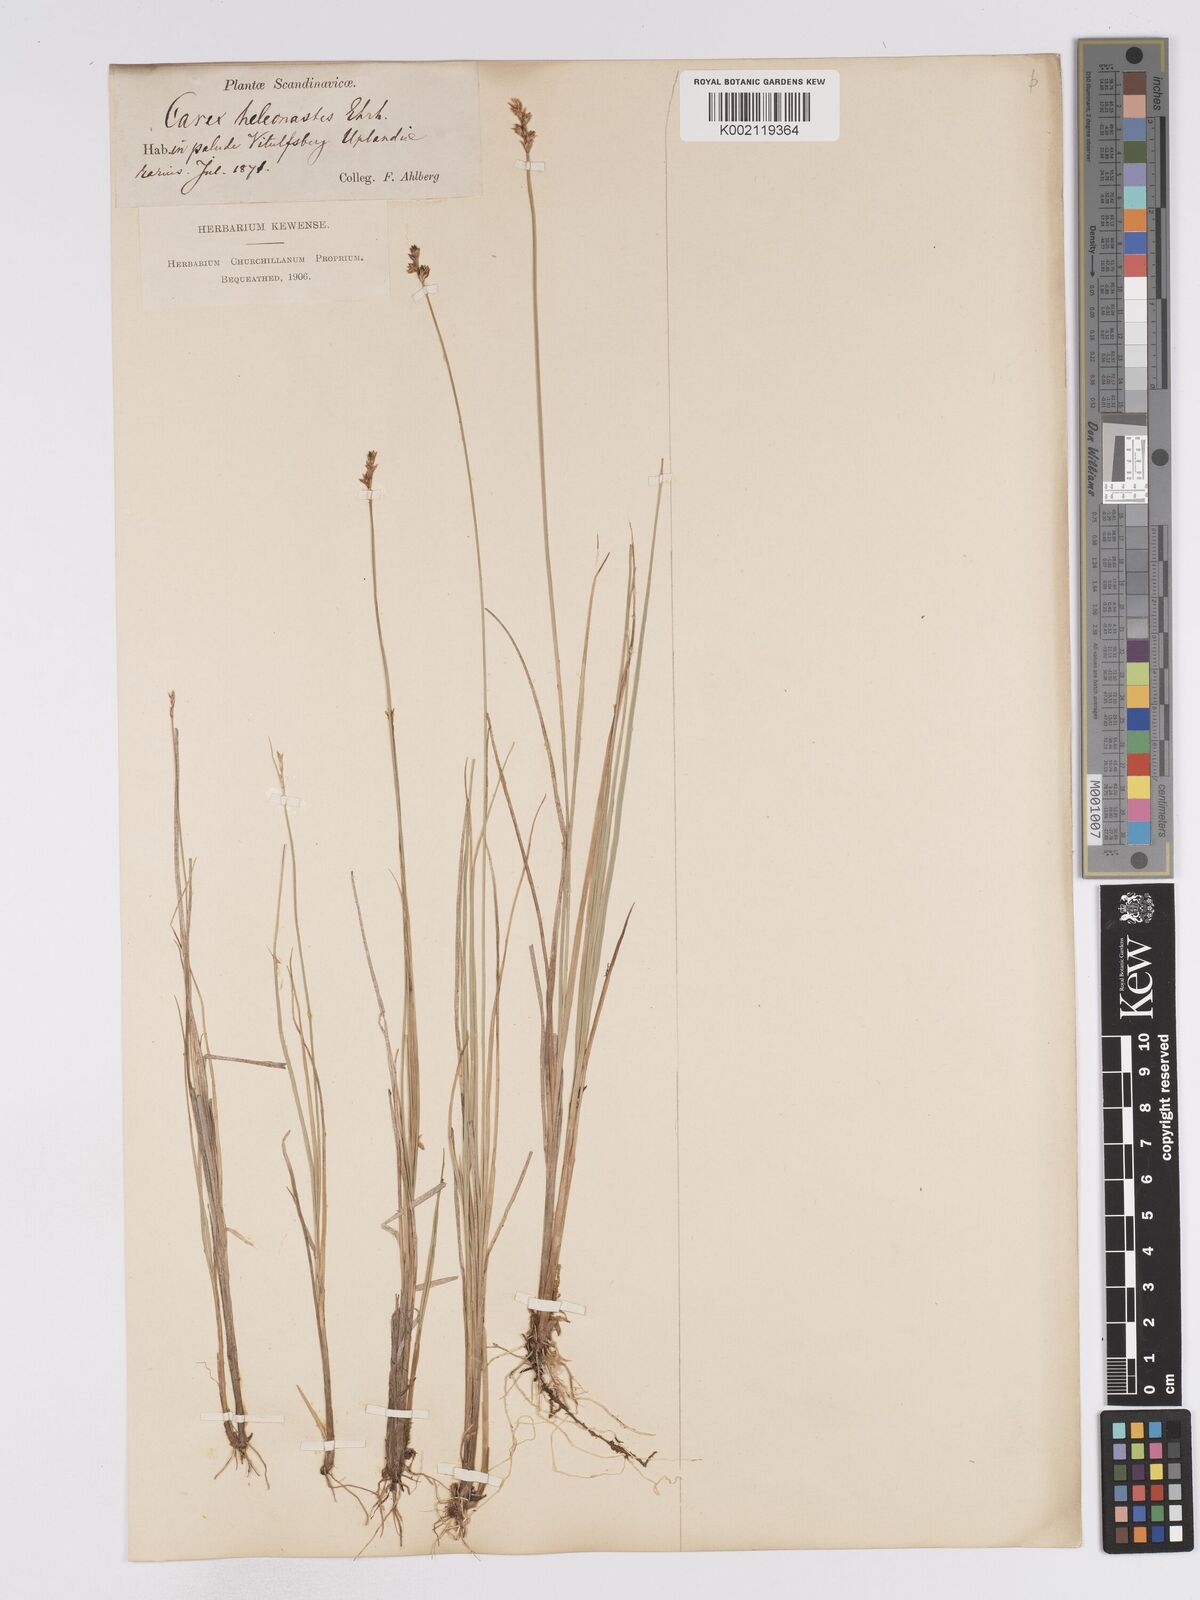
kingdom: Plantae
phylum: Tracheophyta
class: Liliopsida
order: Poales
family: Cyperaceae
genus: Carex
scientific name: Carex heleonastes
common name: Hudson bay sedge
